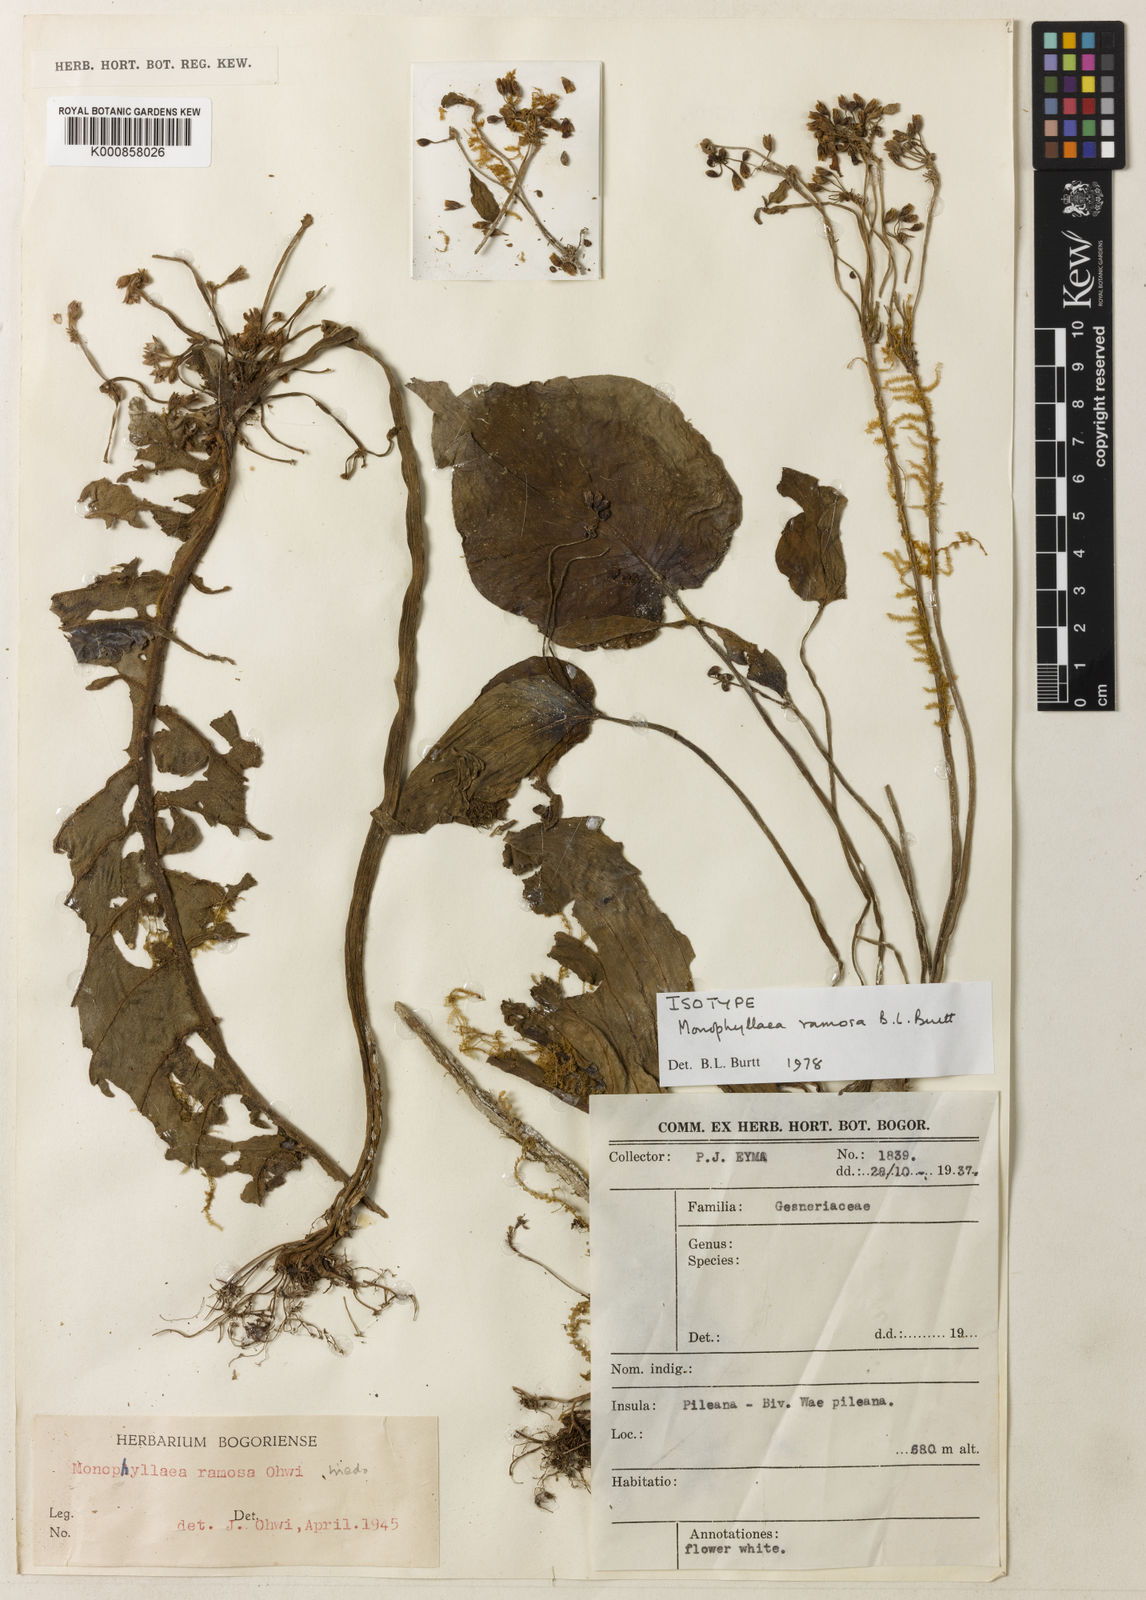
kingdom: Plantae
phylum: Tracheophyta
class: Magnoliopsida
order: Lamiales
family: Gesneriaceae
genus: Monophyllaea
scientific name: Monophyllaea ramosa
